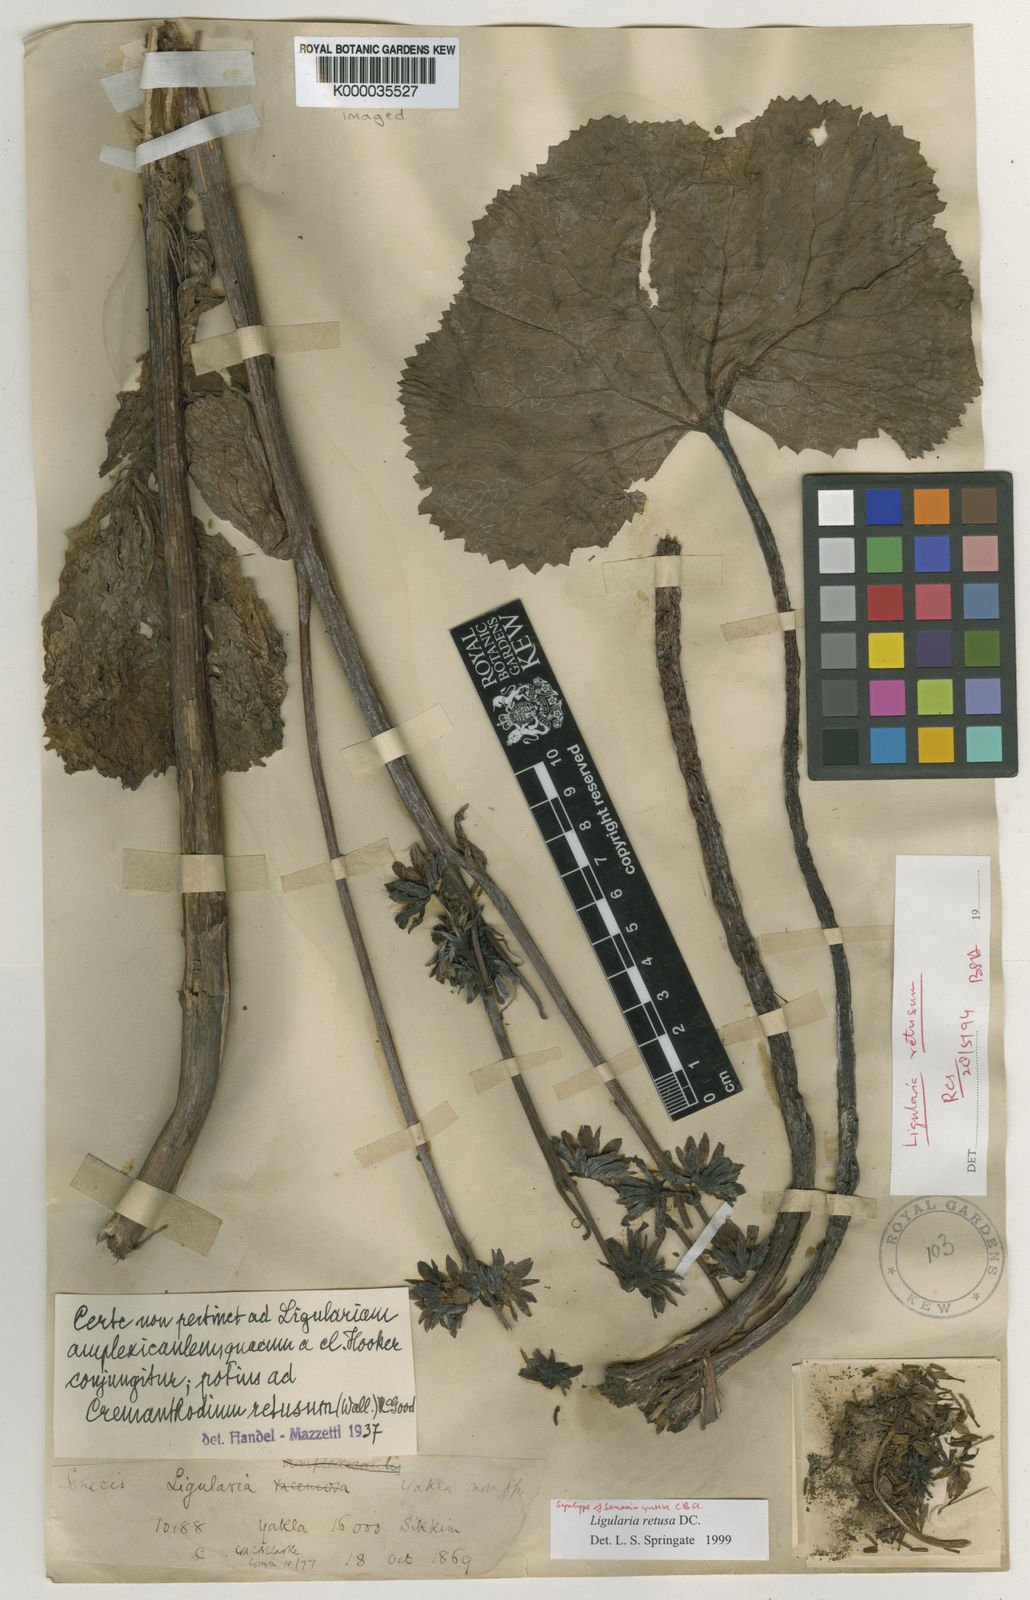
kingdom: Plantae
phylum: Tracheophyta
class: Magnoliopsida
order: Asterales
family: Asteraceae
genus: Ligularia
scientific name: Ligularia retusa
